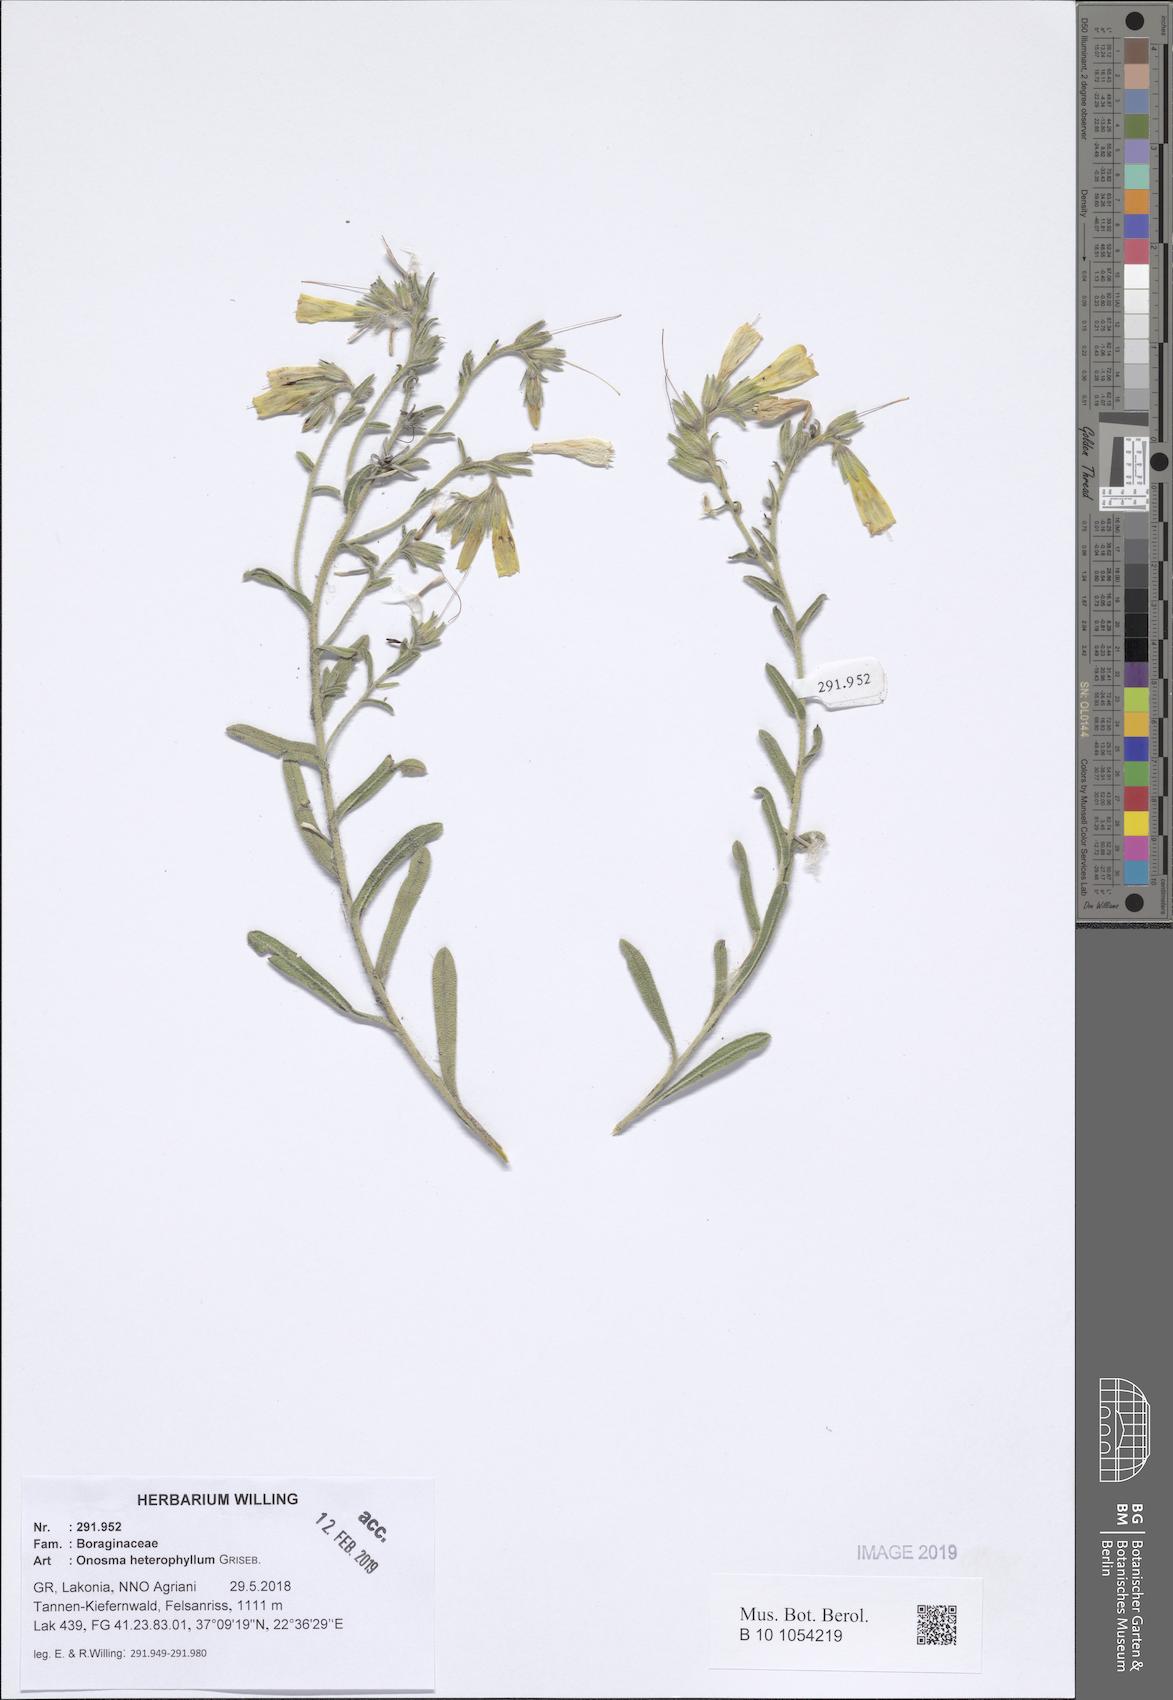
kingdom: Plantae
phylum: Tracheophyta
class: Magnoliopsida
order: Boraginales
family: Boraginaceae
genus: Onosma
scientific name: Onosma heterophylla
